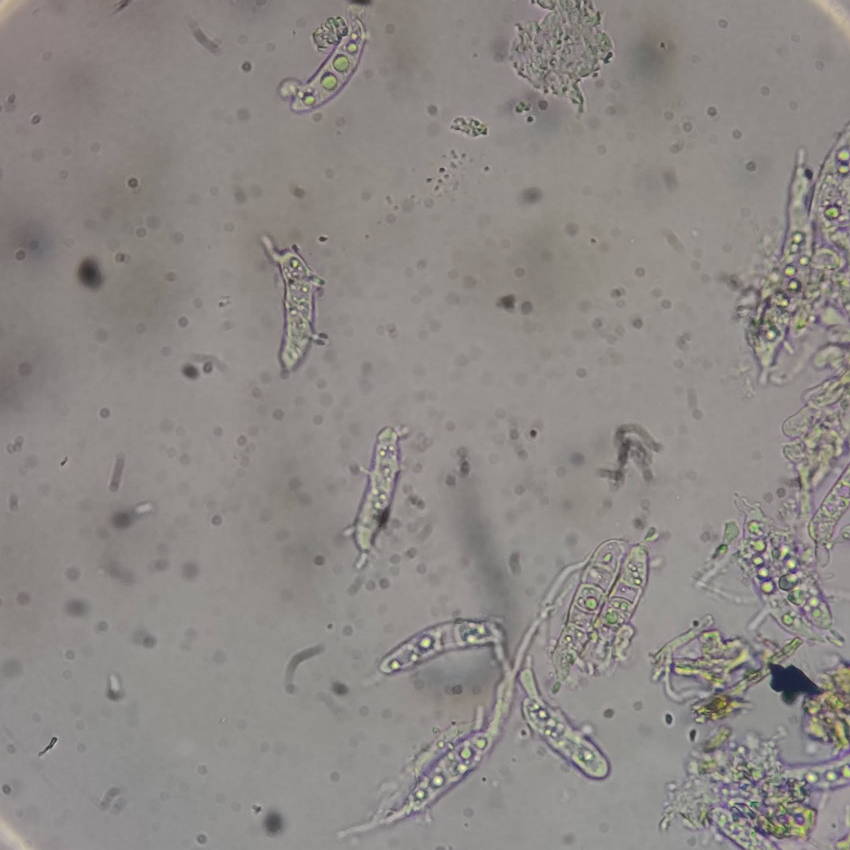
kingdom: Fungi
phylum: Ascomycota
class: Leotiomycetes
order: Helotiales
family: Dermateaceae
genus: Pezicula
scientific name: Pezicula cinnamomea
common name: kanel-klyngeskive
